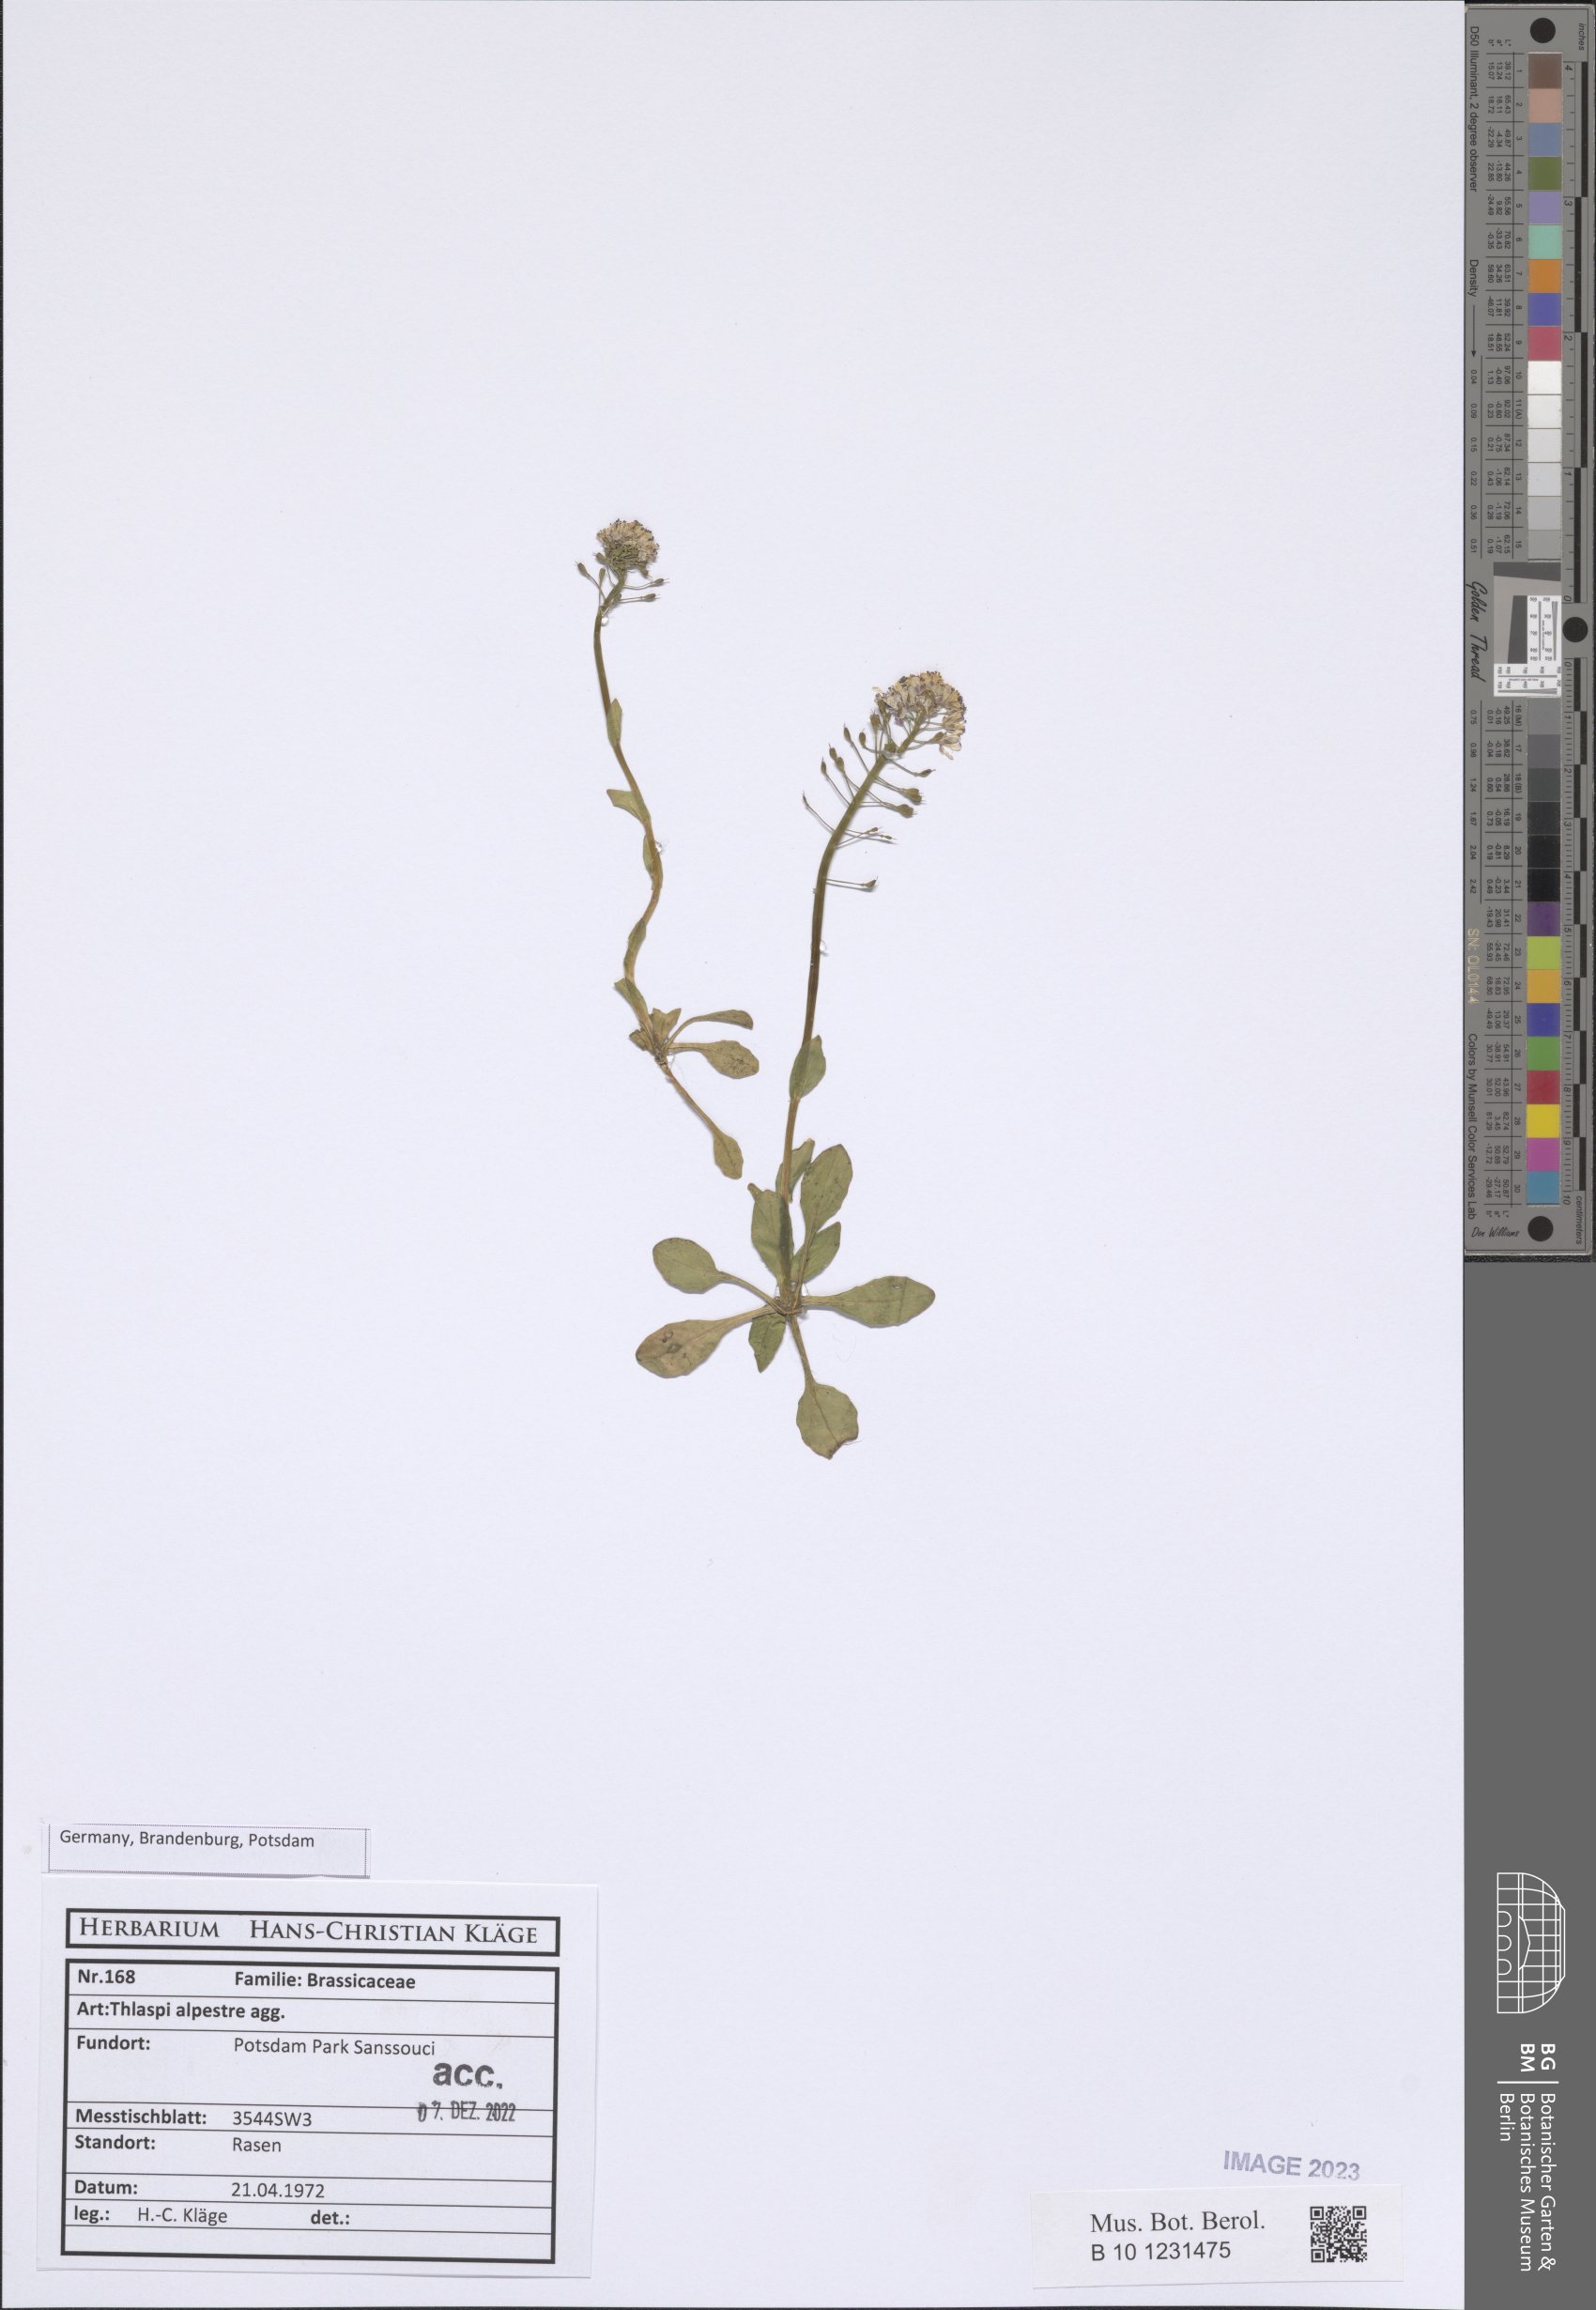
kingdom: Plantae
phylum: Tracheophyta
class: Magnoliopsida
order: Brassicales
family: Brassicaceae
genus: Noccaea
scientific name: Noccaea brachypetala
